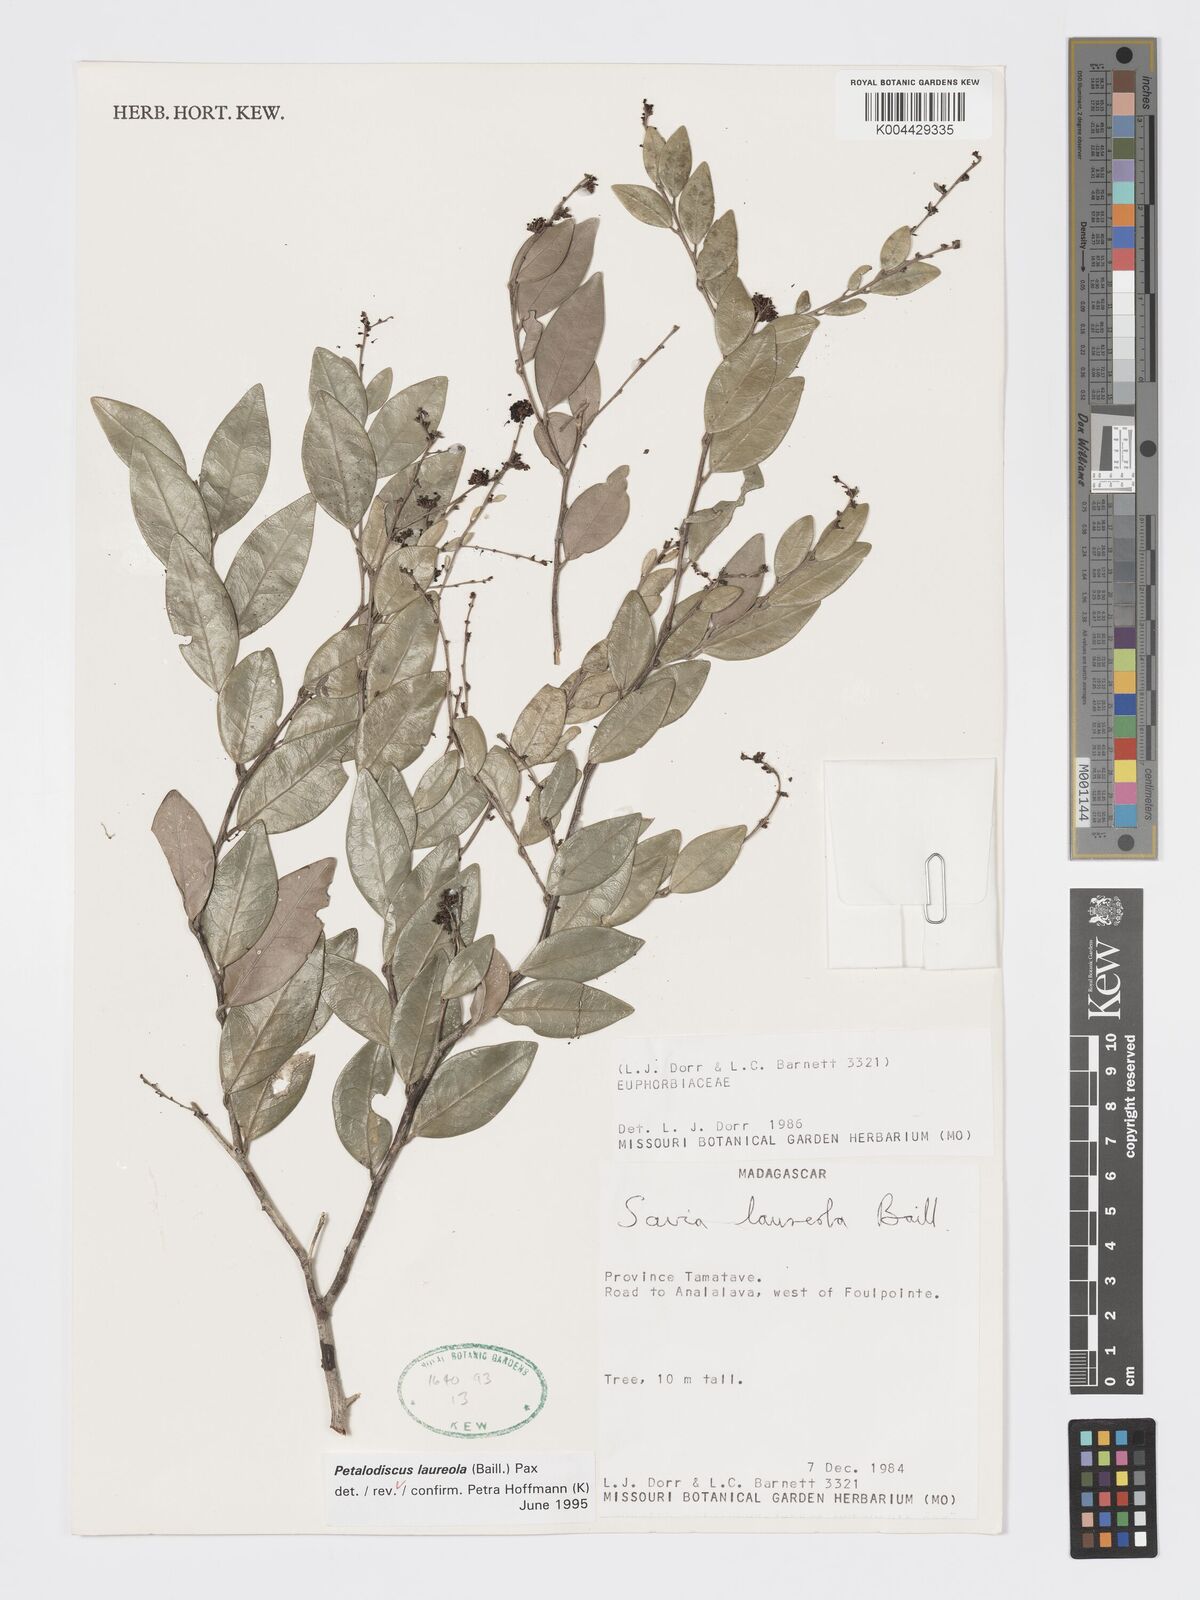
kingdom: Plantae
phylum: Tracheophyta
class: Magnoliopsida
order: Malpighiales
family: Phyllanthaceae
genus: Wielandia
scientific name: Wielandia laureola
